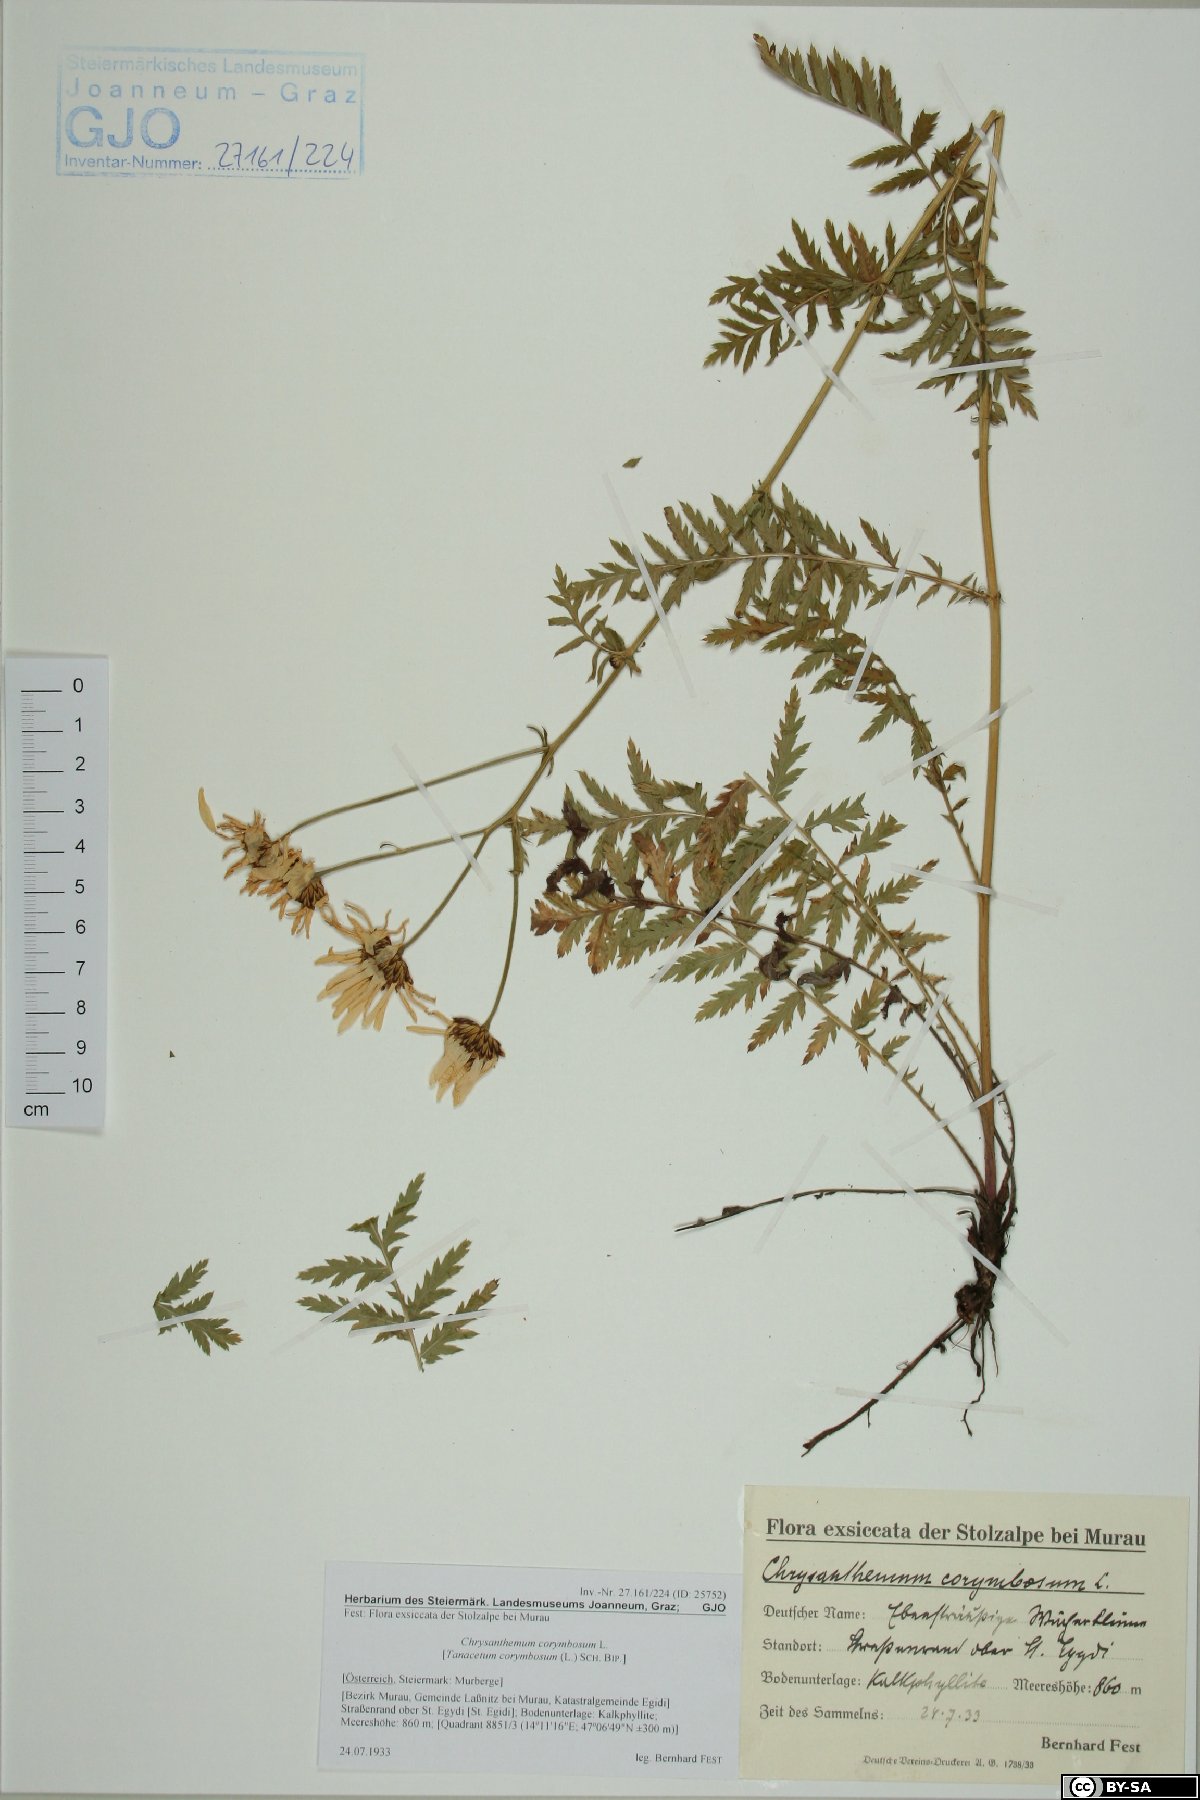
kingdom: Plantae
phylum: Tracheophyta
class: Magnoliopsida
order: Asterales
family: Asteraceae
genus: Tanacetum
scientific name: Tanacetum corymbosum
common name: Scentless feverfew
